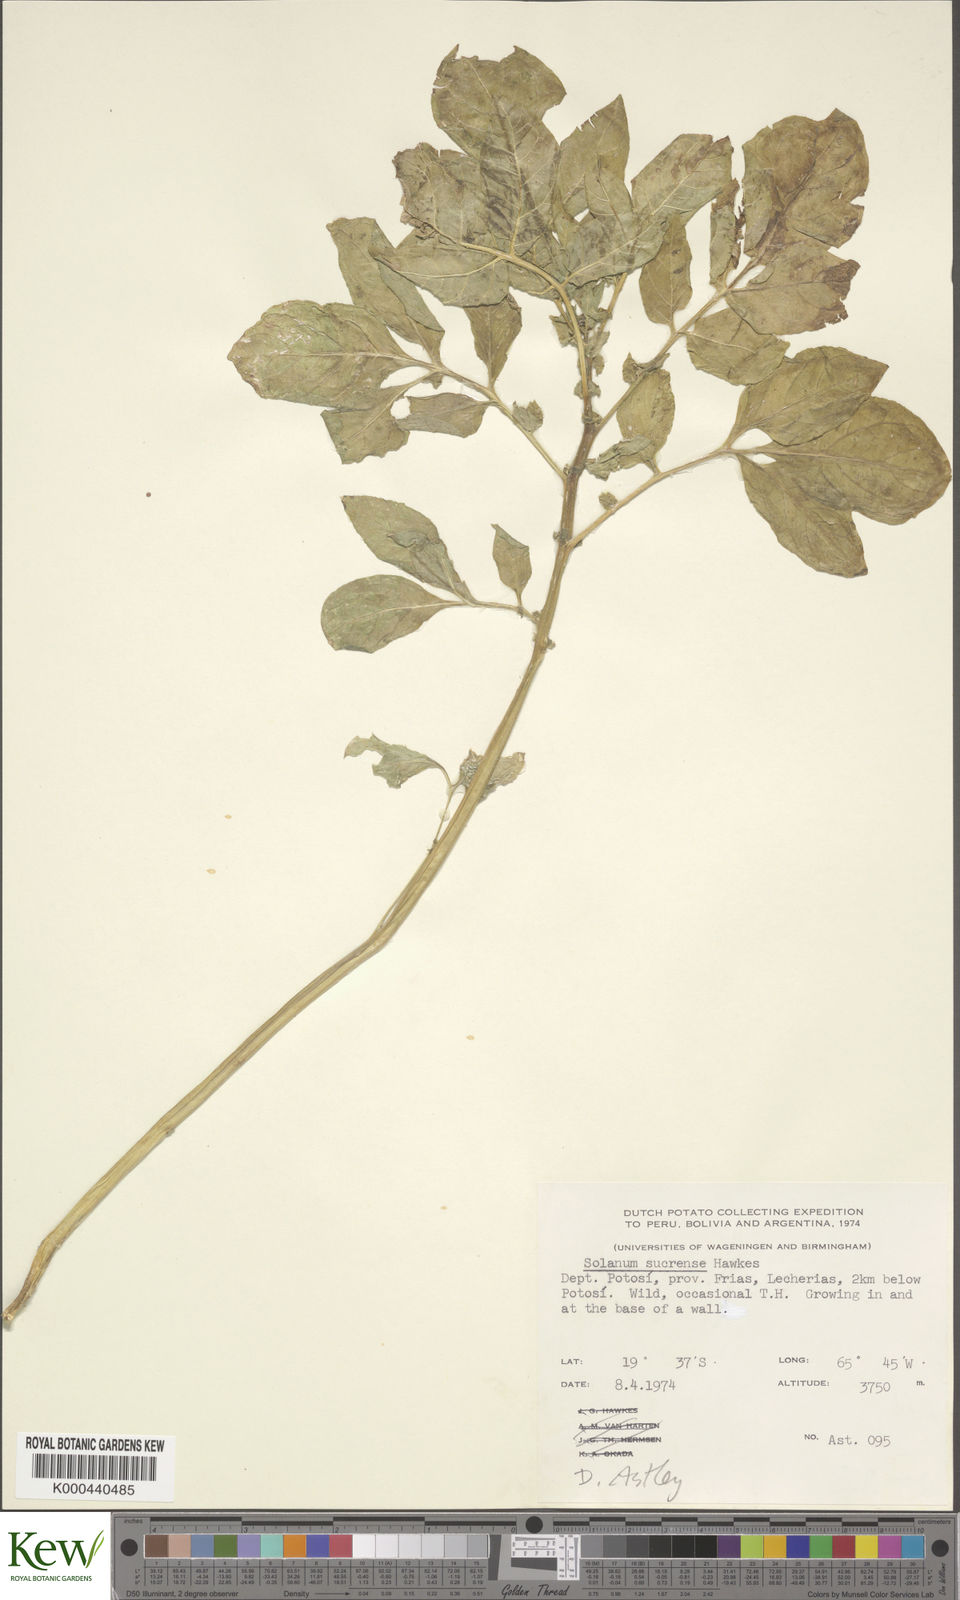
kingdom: Plantae
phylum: Tracheophyta
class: Magnoliopsida
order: Solanales
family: Solanaceae
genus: Solanum
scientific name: Solanum brevicaule
